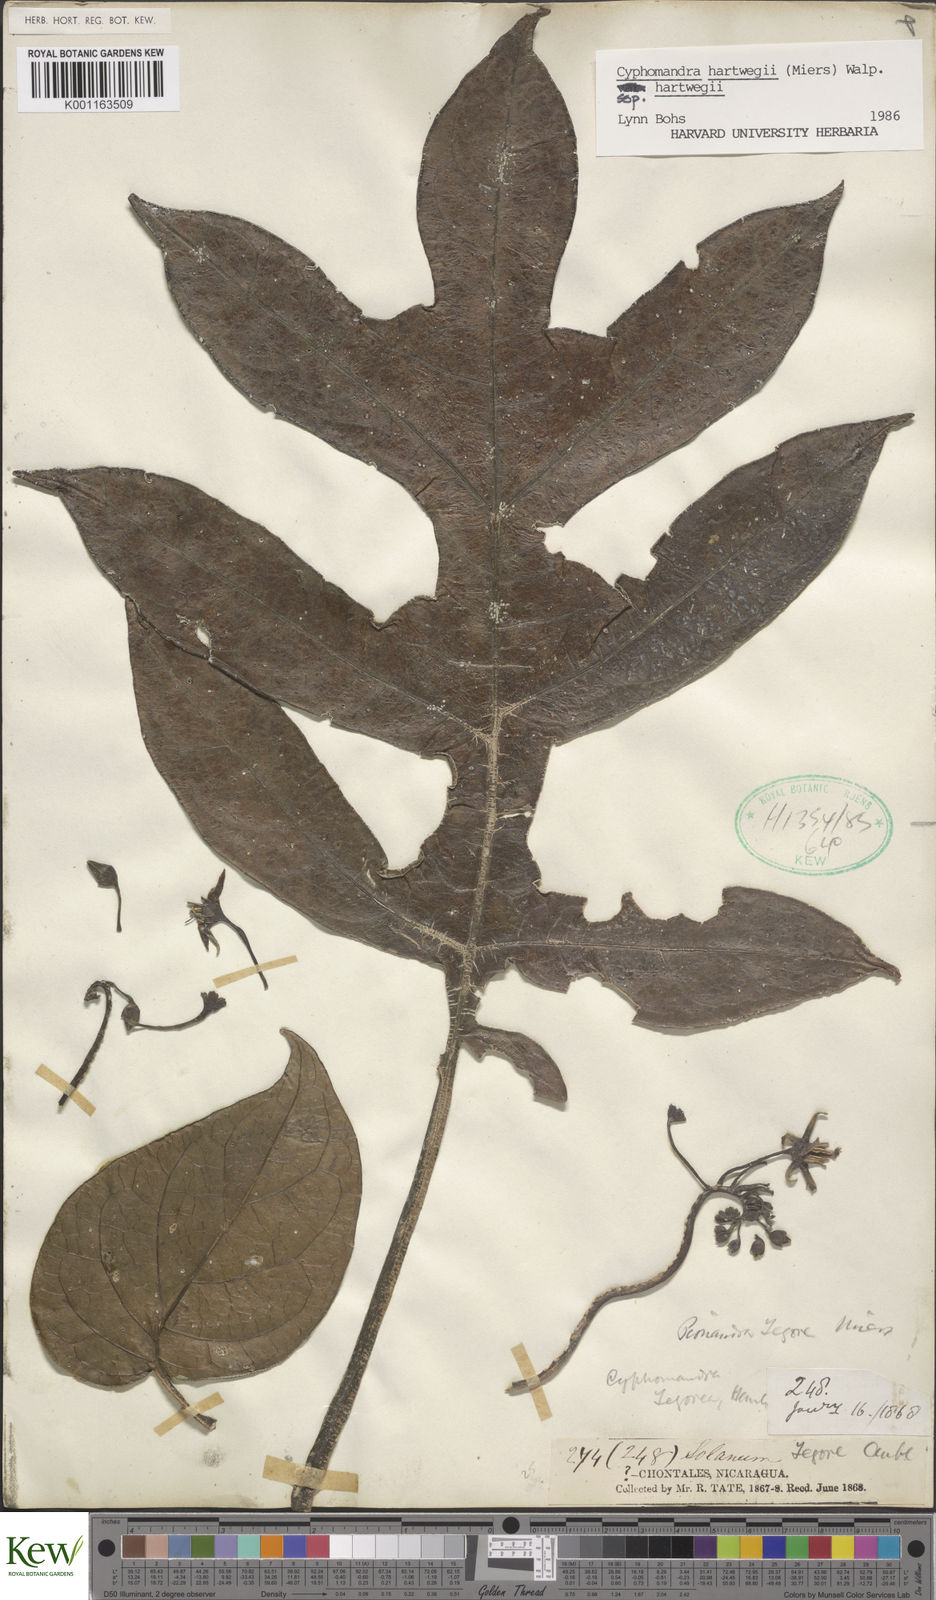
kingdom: Plantae
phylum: Tracheophyta
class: Magnoliopsida
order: Solanales
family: Solanaceae
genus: Solanum
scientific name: Solanum splendens
